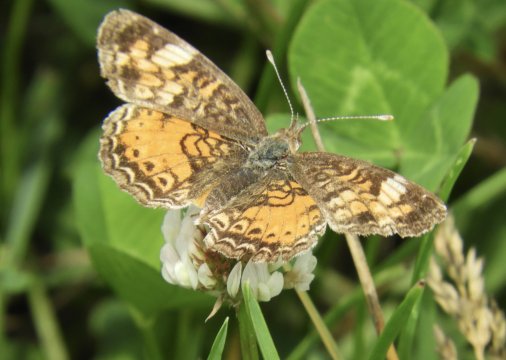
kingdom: Animalia
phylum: Arthropoda
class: Insecta
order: Lepidoptera
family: Nymphalidae
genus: Phyciodes
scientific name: Phyciodes
